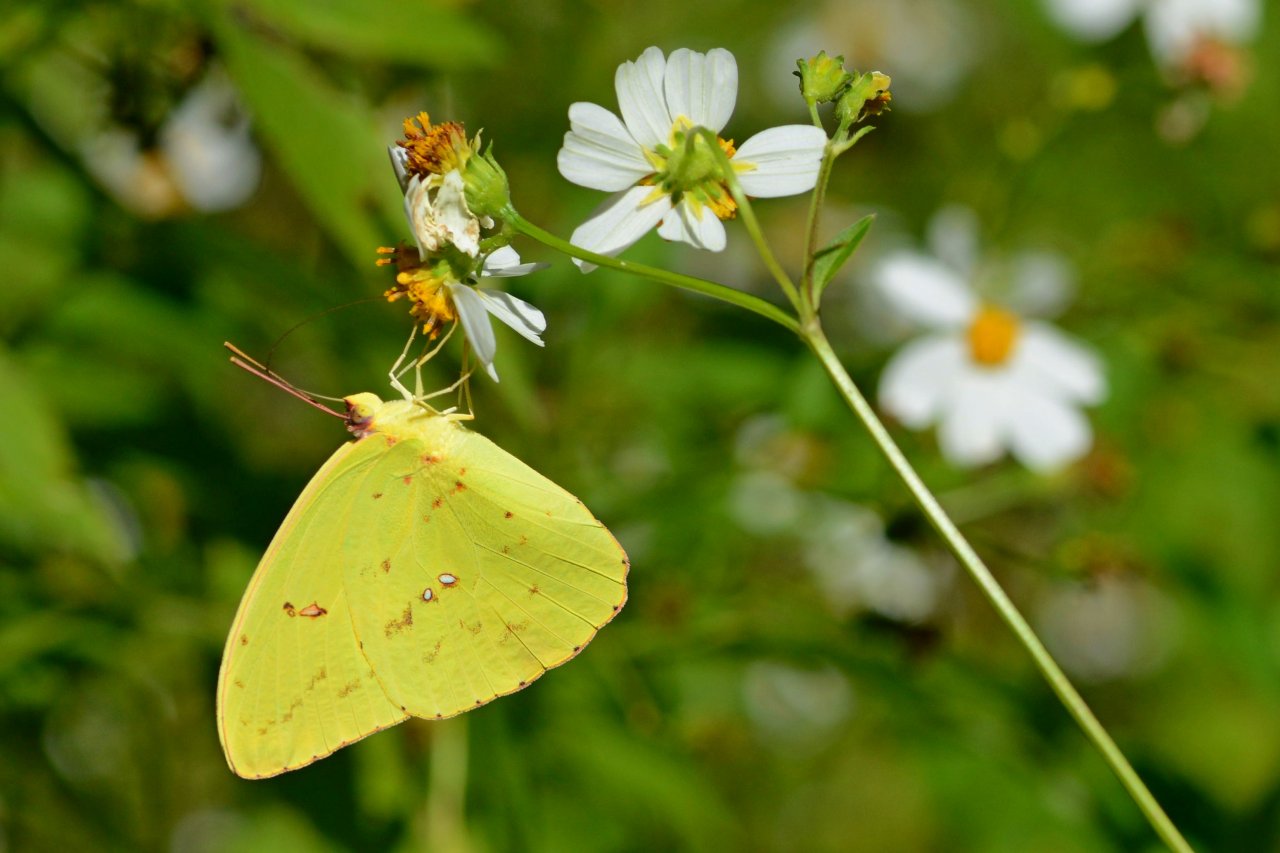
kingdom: Animalia
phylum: Arthropoda
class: Insecta
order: Lepidoptera
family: Pieridae
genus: Phoebis
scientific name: Phoebis sennae
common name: Cloudless Sulphur
